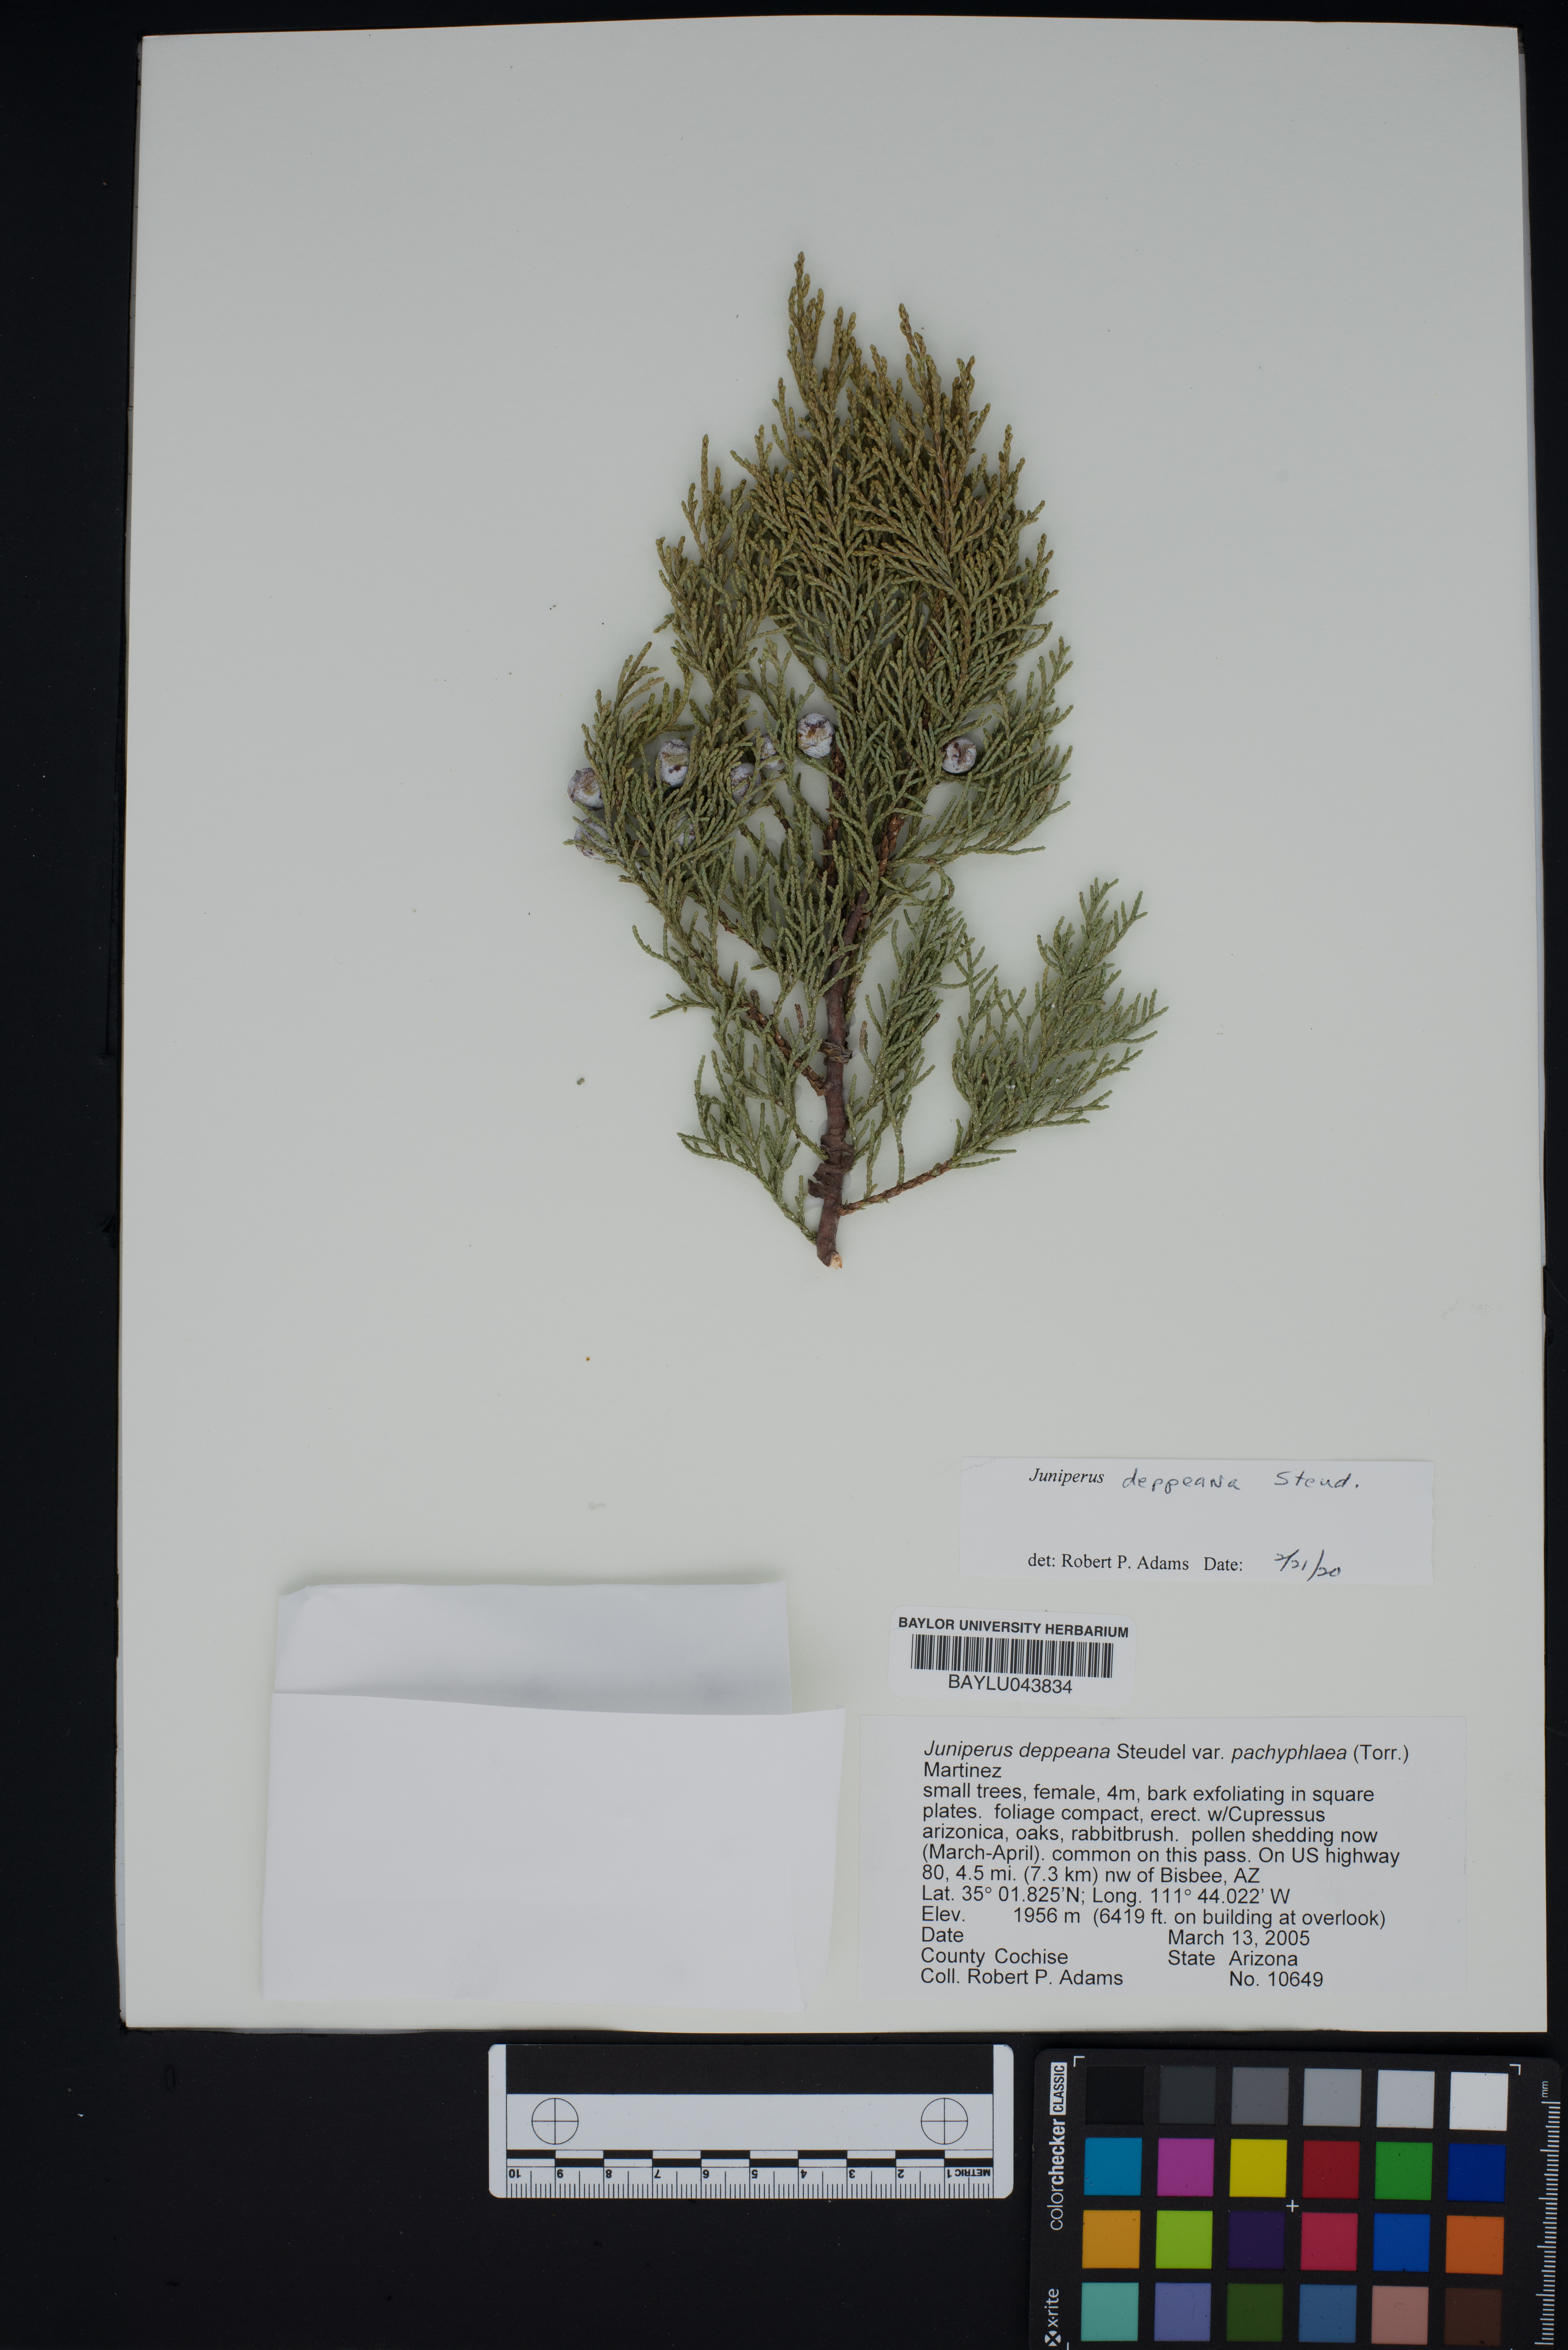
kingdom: Plantae
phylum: Tracheophyta
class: Pinopsida
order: Pinales
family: Cupressaceae
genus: Juniperus
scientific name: Juniperus deppeana
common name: Alligator juniper
